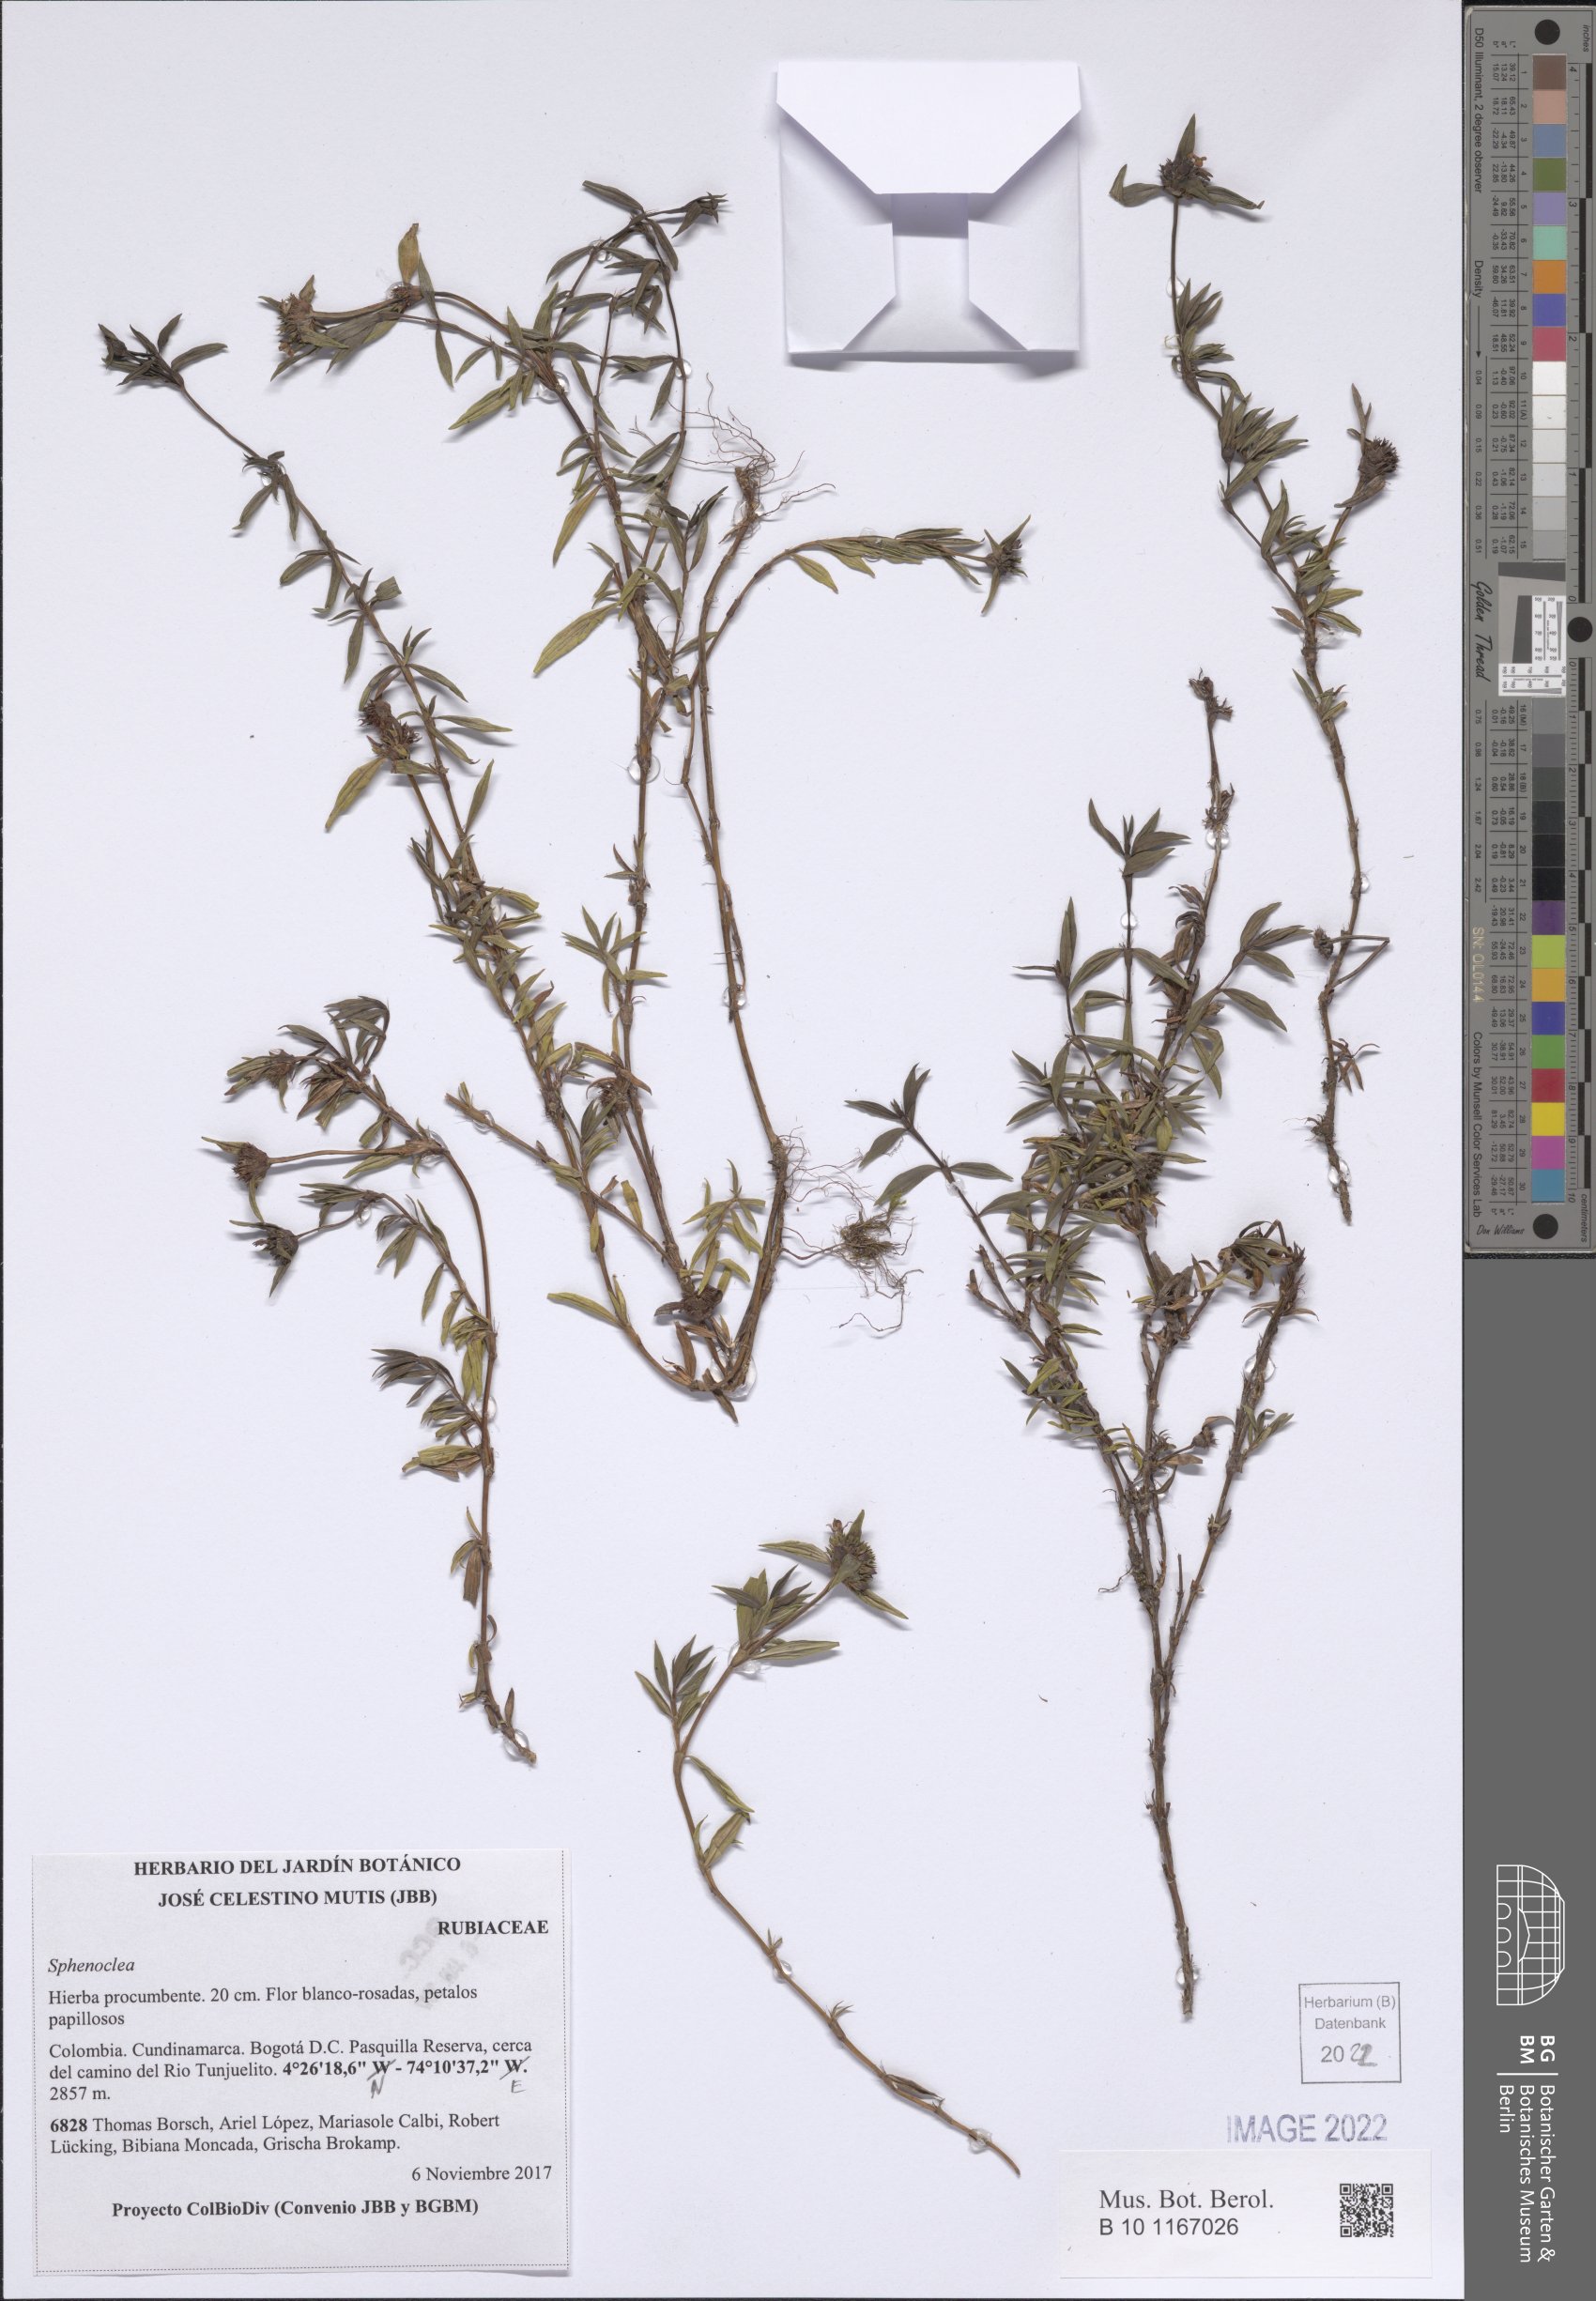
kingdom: Plantae
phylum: Tracheophyta
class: Magnoliopsida
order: Solanales
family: Sphenocleaceae
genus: Sphenoclea
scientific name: Sphenoclea
